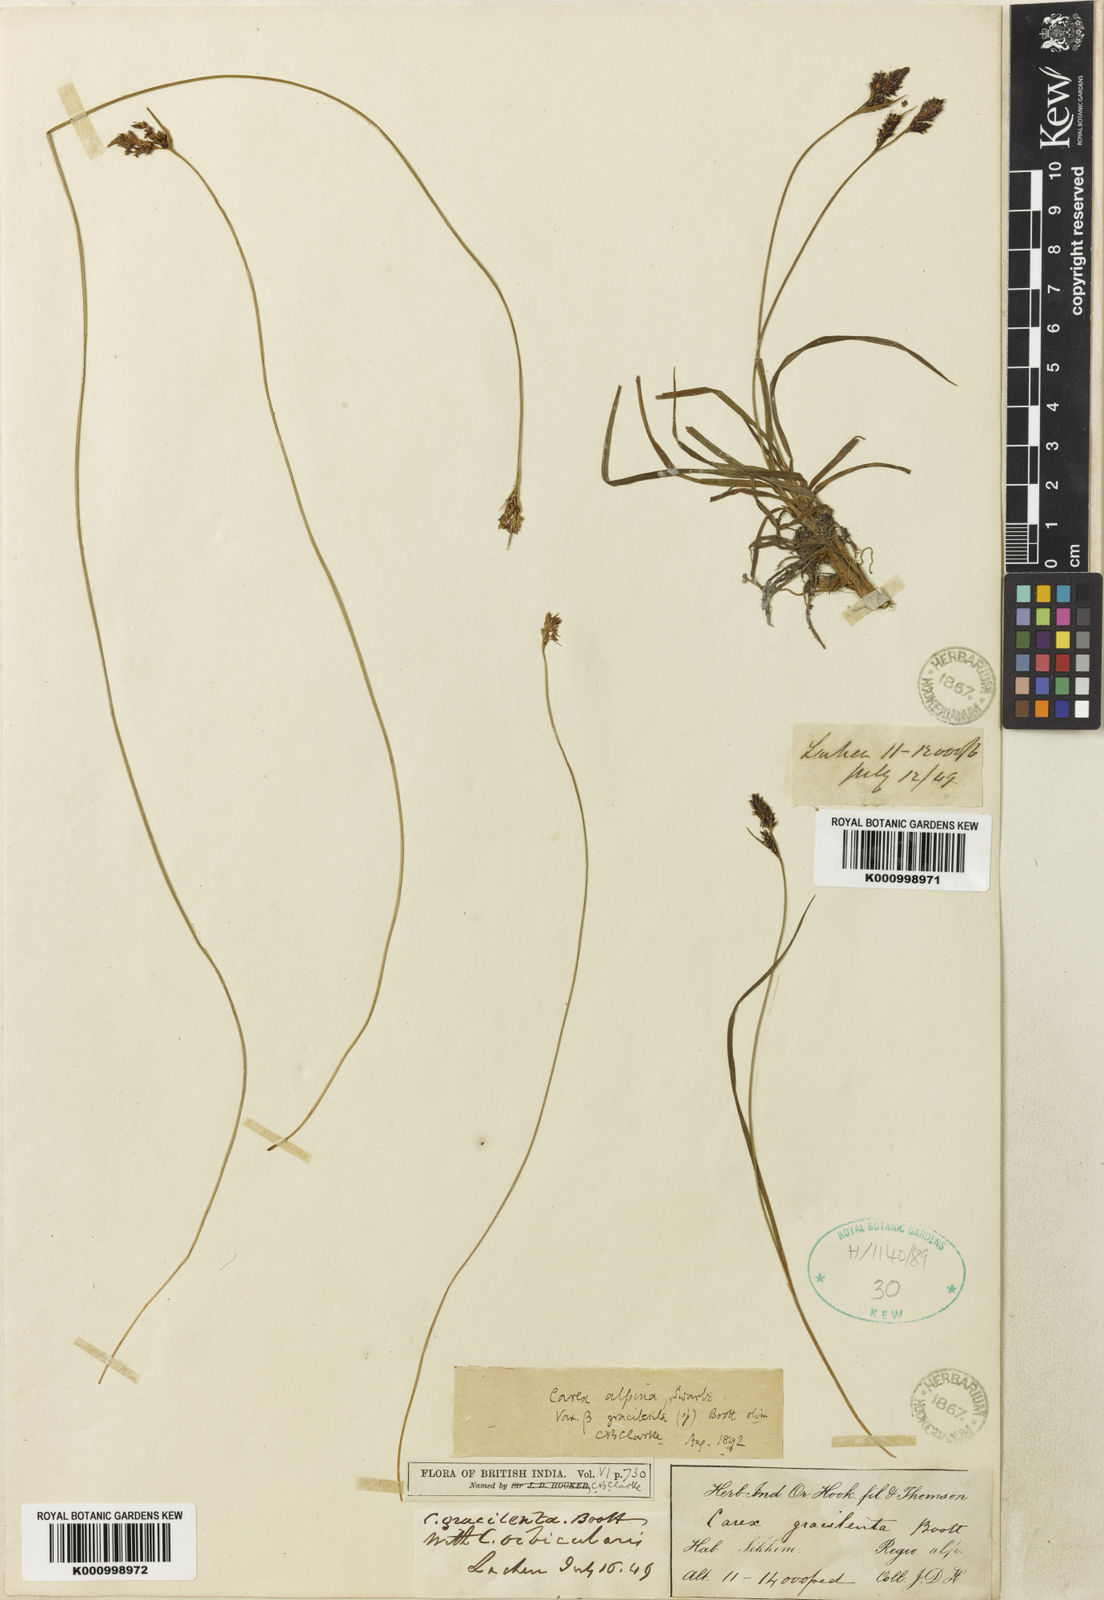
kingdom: Plantae
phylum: Tracheophyta
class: Liliopsida
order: Poales
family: Cyperaceae
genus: Carex
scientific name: Carex mackenziei
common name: Mackenzie's sedge
